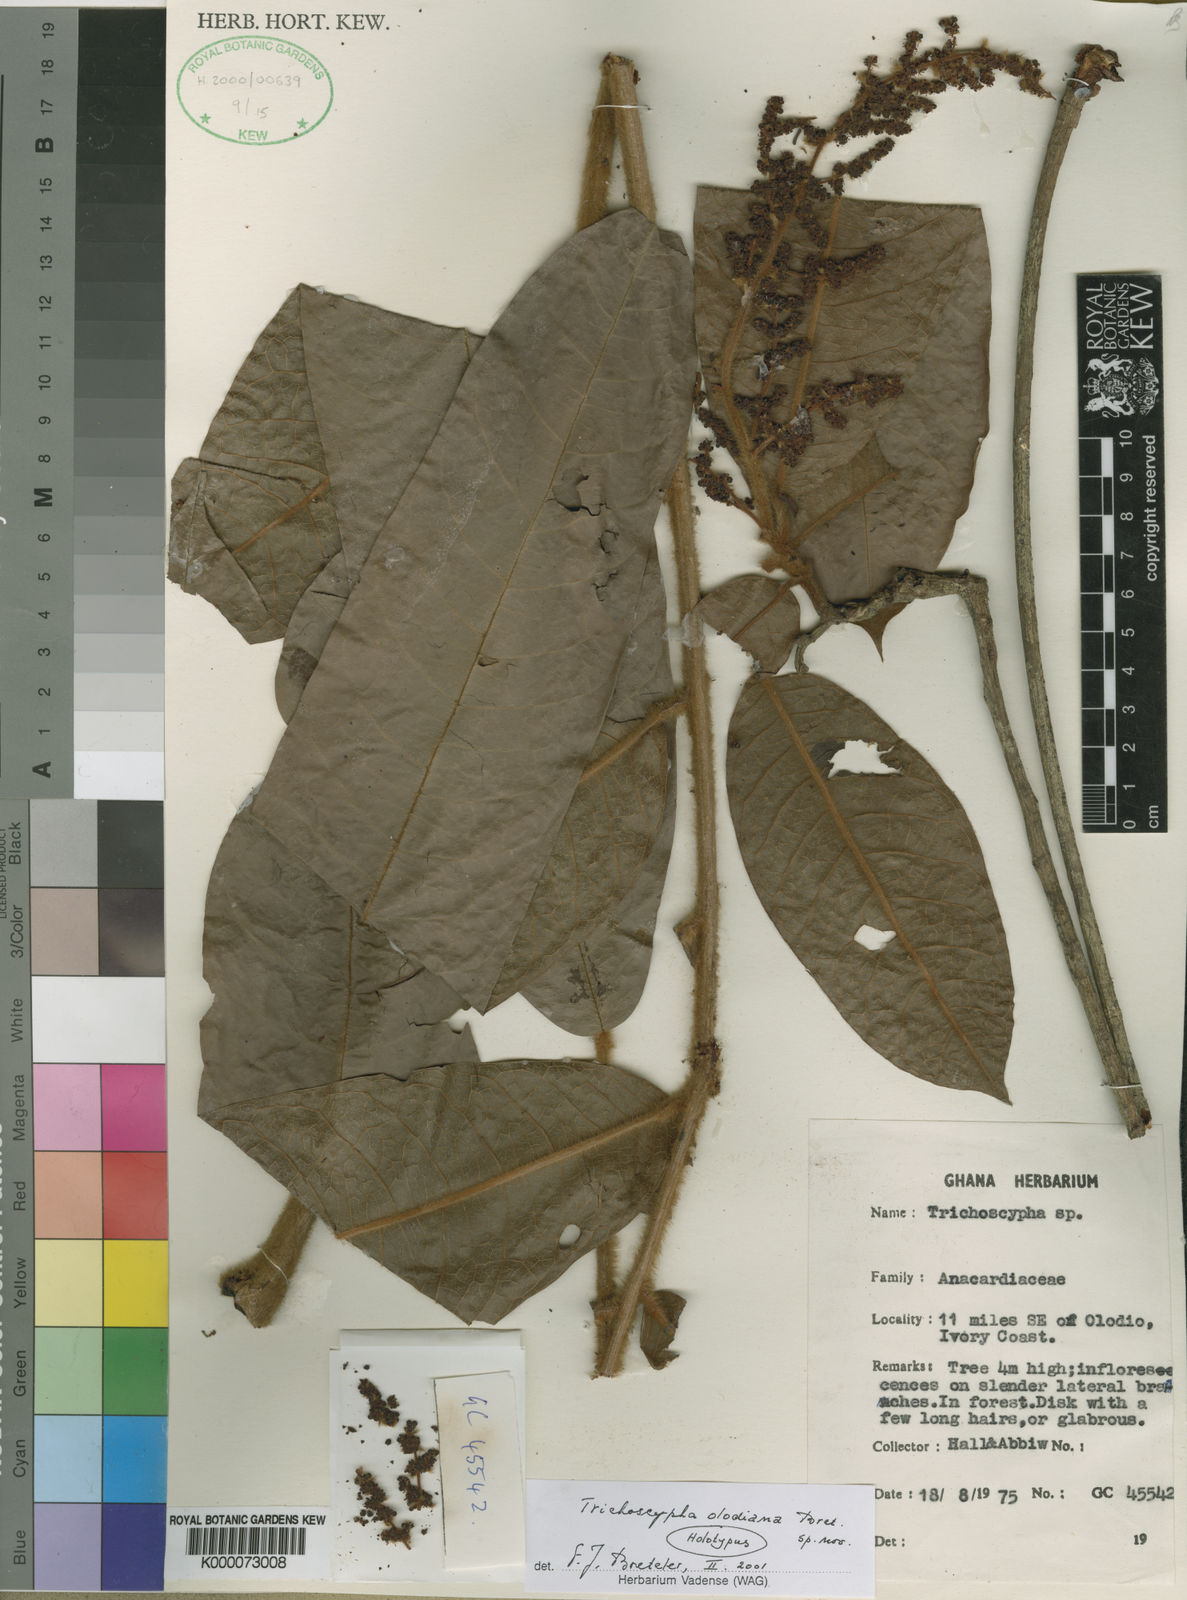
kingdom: Plantae
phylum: Tracheophyta
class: Magnoliopsida
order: Sapindales
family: Anacardiaceae
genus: Trichoscypha
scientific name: Trichoscypha olodiana
